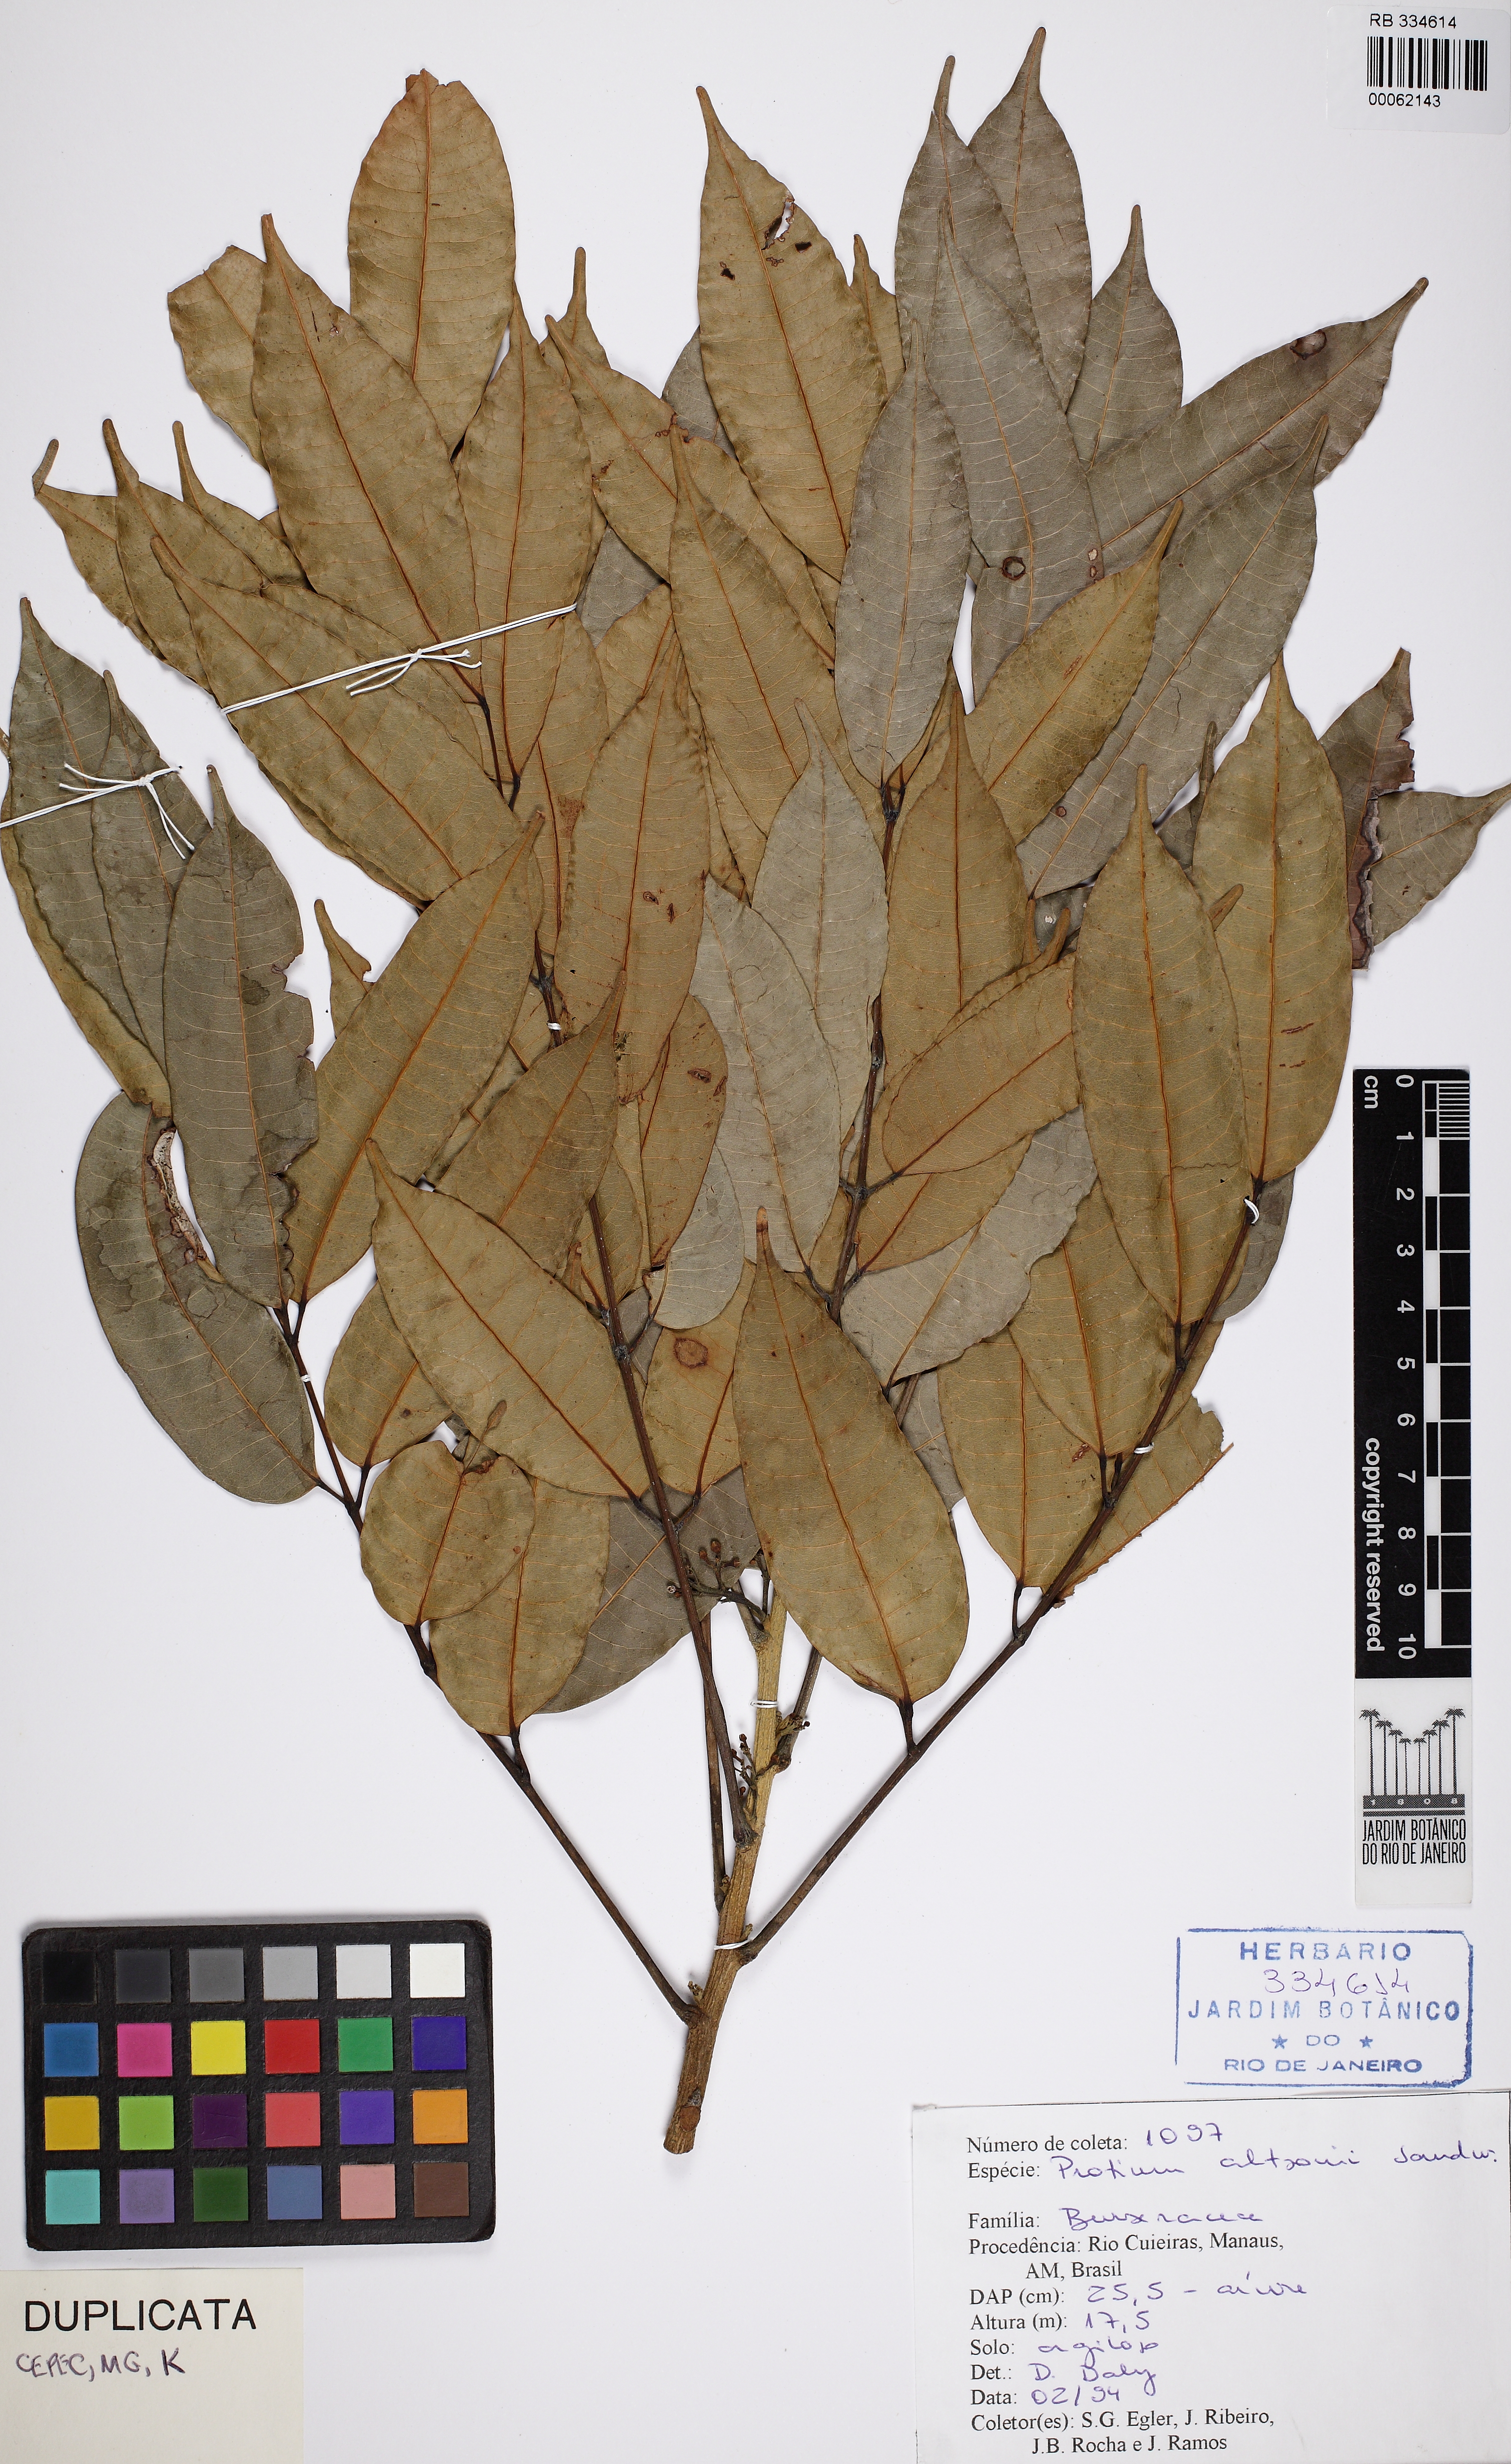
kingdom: Plantae
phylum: Tracheophyta
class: Magnoliopsida
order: Sapindales
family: Burseraceae
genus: Protium
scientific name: Protium altsonii
